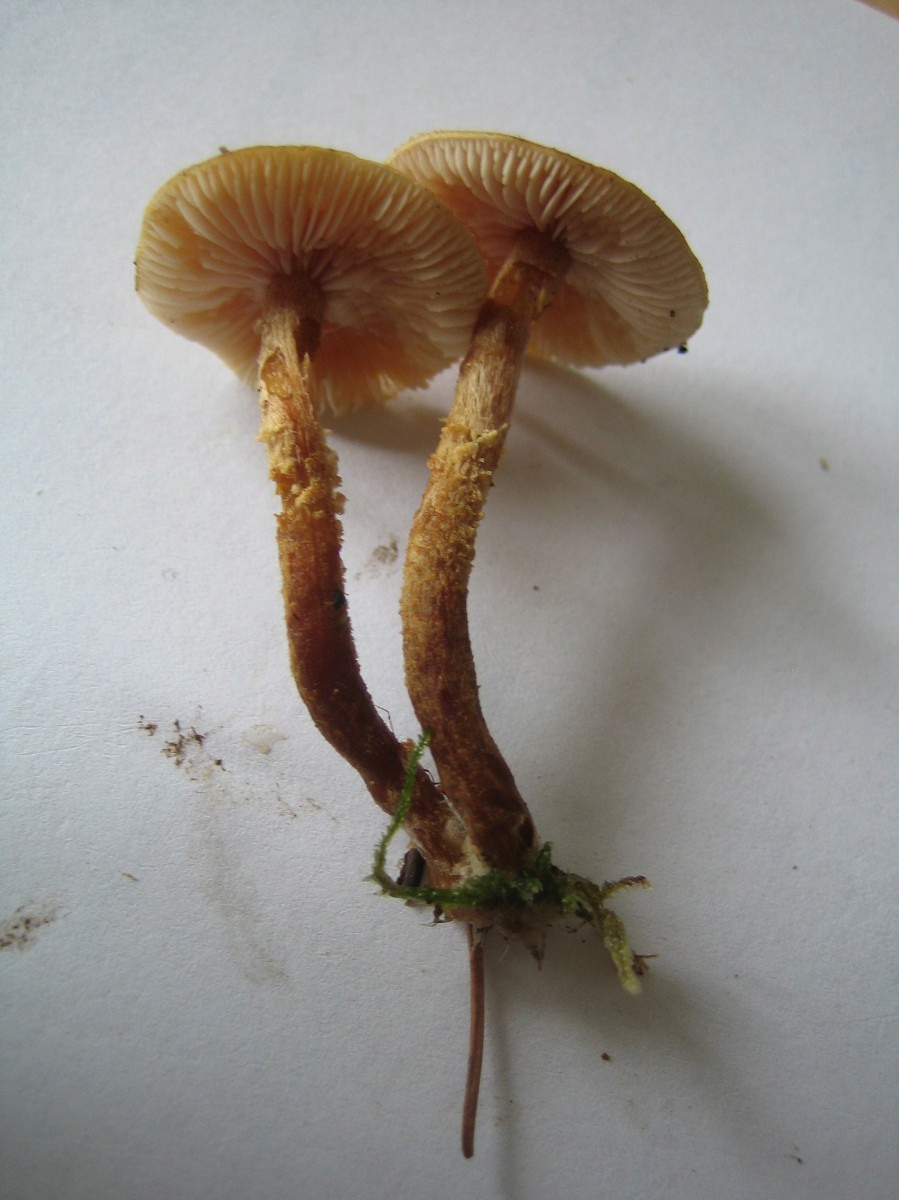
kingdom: Fungi
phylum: Basidiomycota
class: Agaricomycetes
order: Agaricales
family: Tricholomataceae
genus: Cystoderma
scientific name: Cystoderma jasonis
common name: gulkødet grynhat
